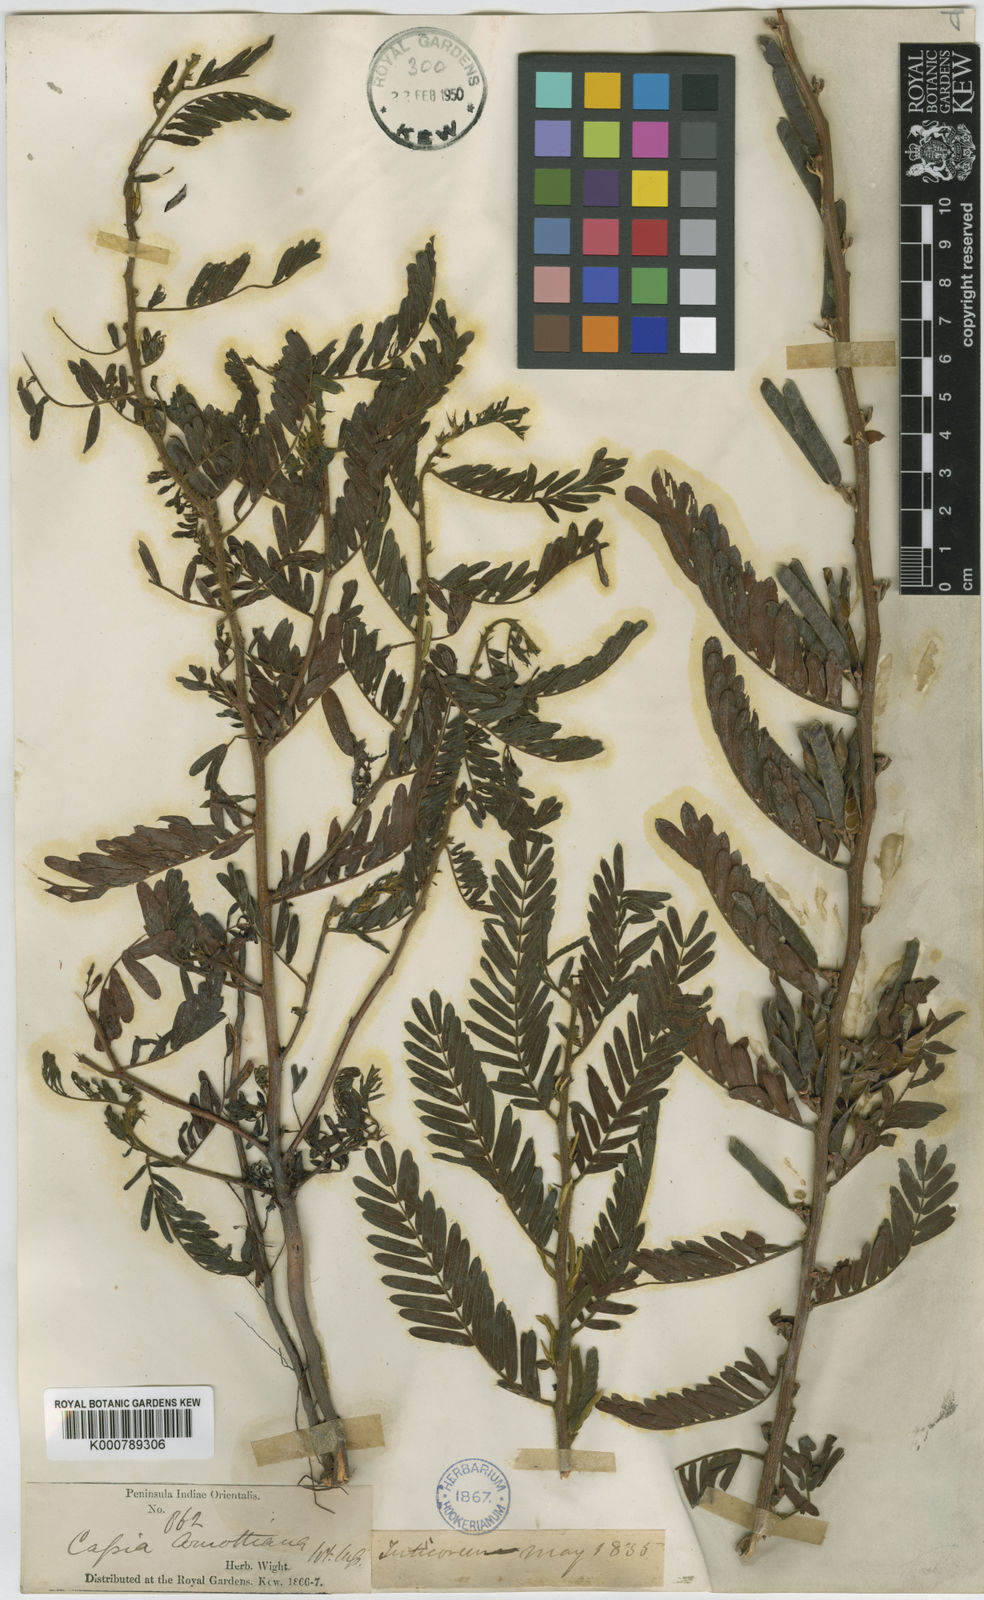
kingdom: Plantae
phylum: Tracheophyta
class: Magnoliopsida
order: Fabales
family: Fabaceae
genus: Chamaecrista
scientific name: Chamaecrista nigricans
